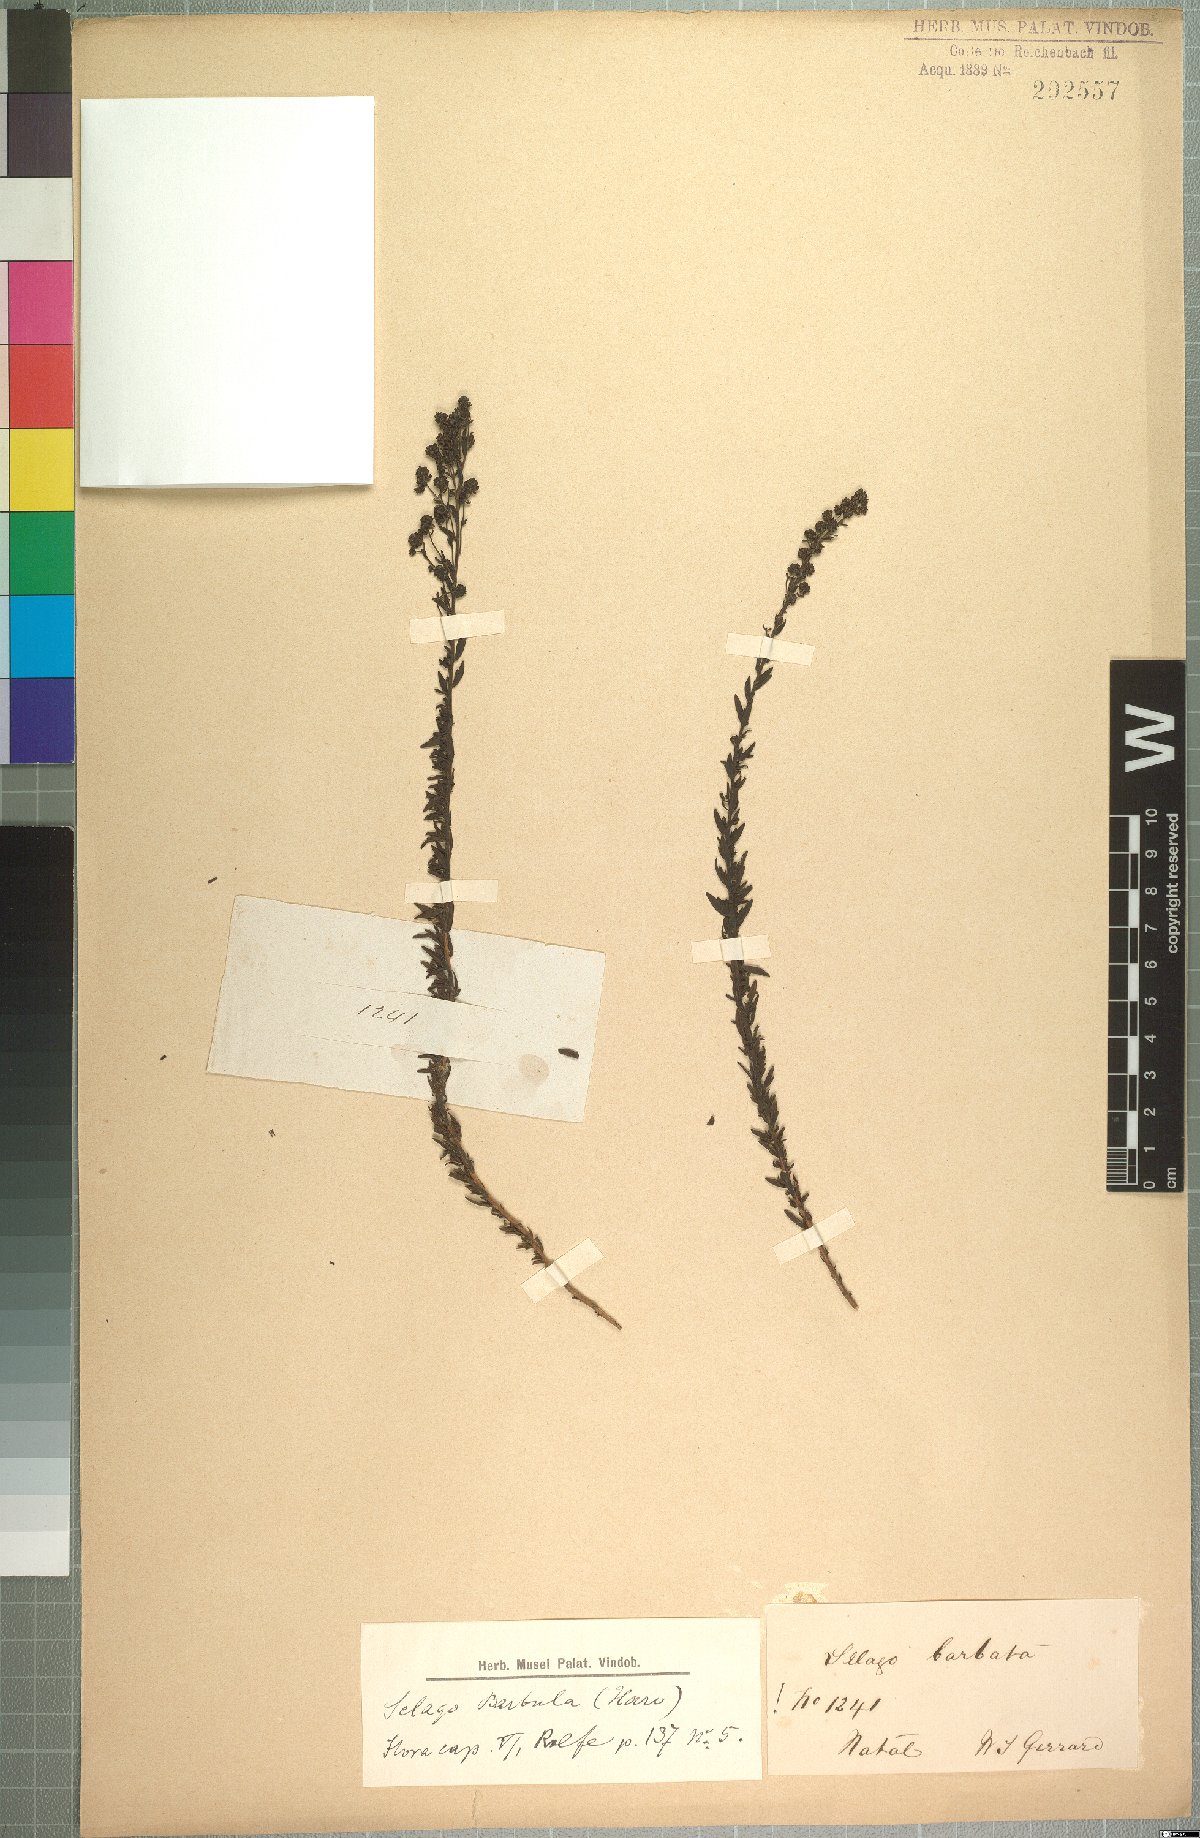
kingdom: Plantae
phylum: Tracheophyta
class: Magnoliopsida
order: Lamiales
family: Scrophulariaceae
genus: Selago
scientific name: Selago barbula
